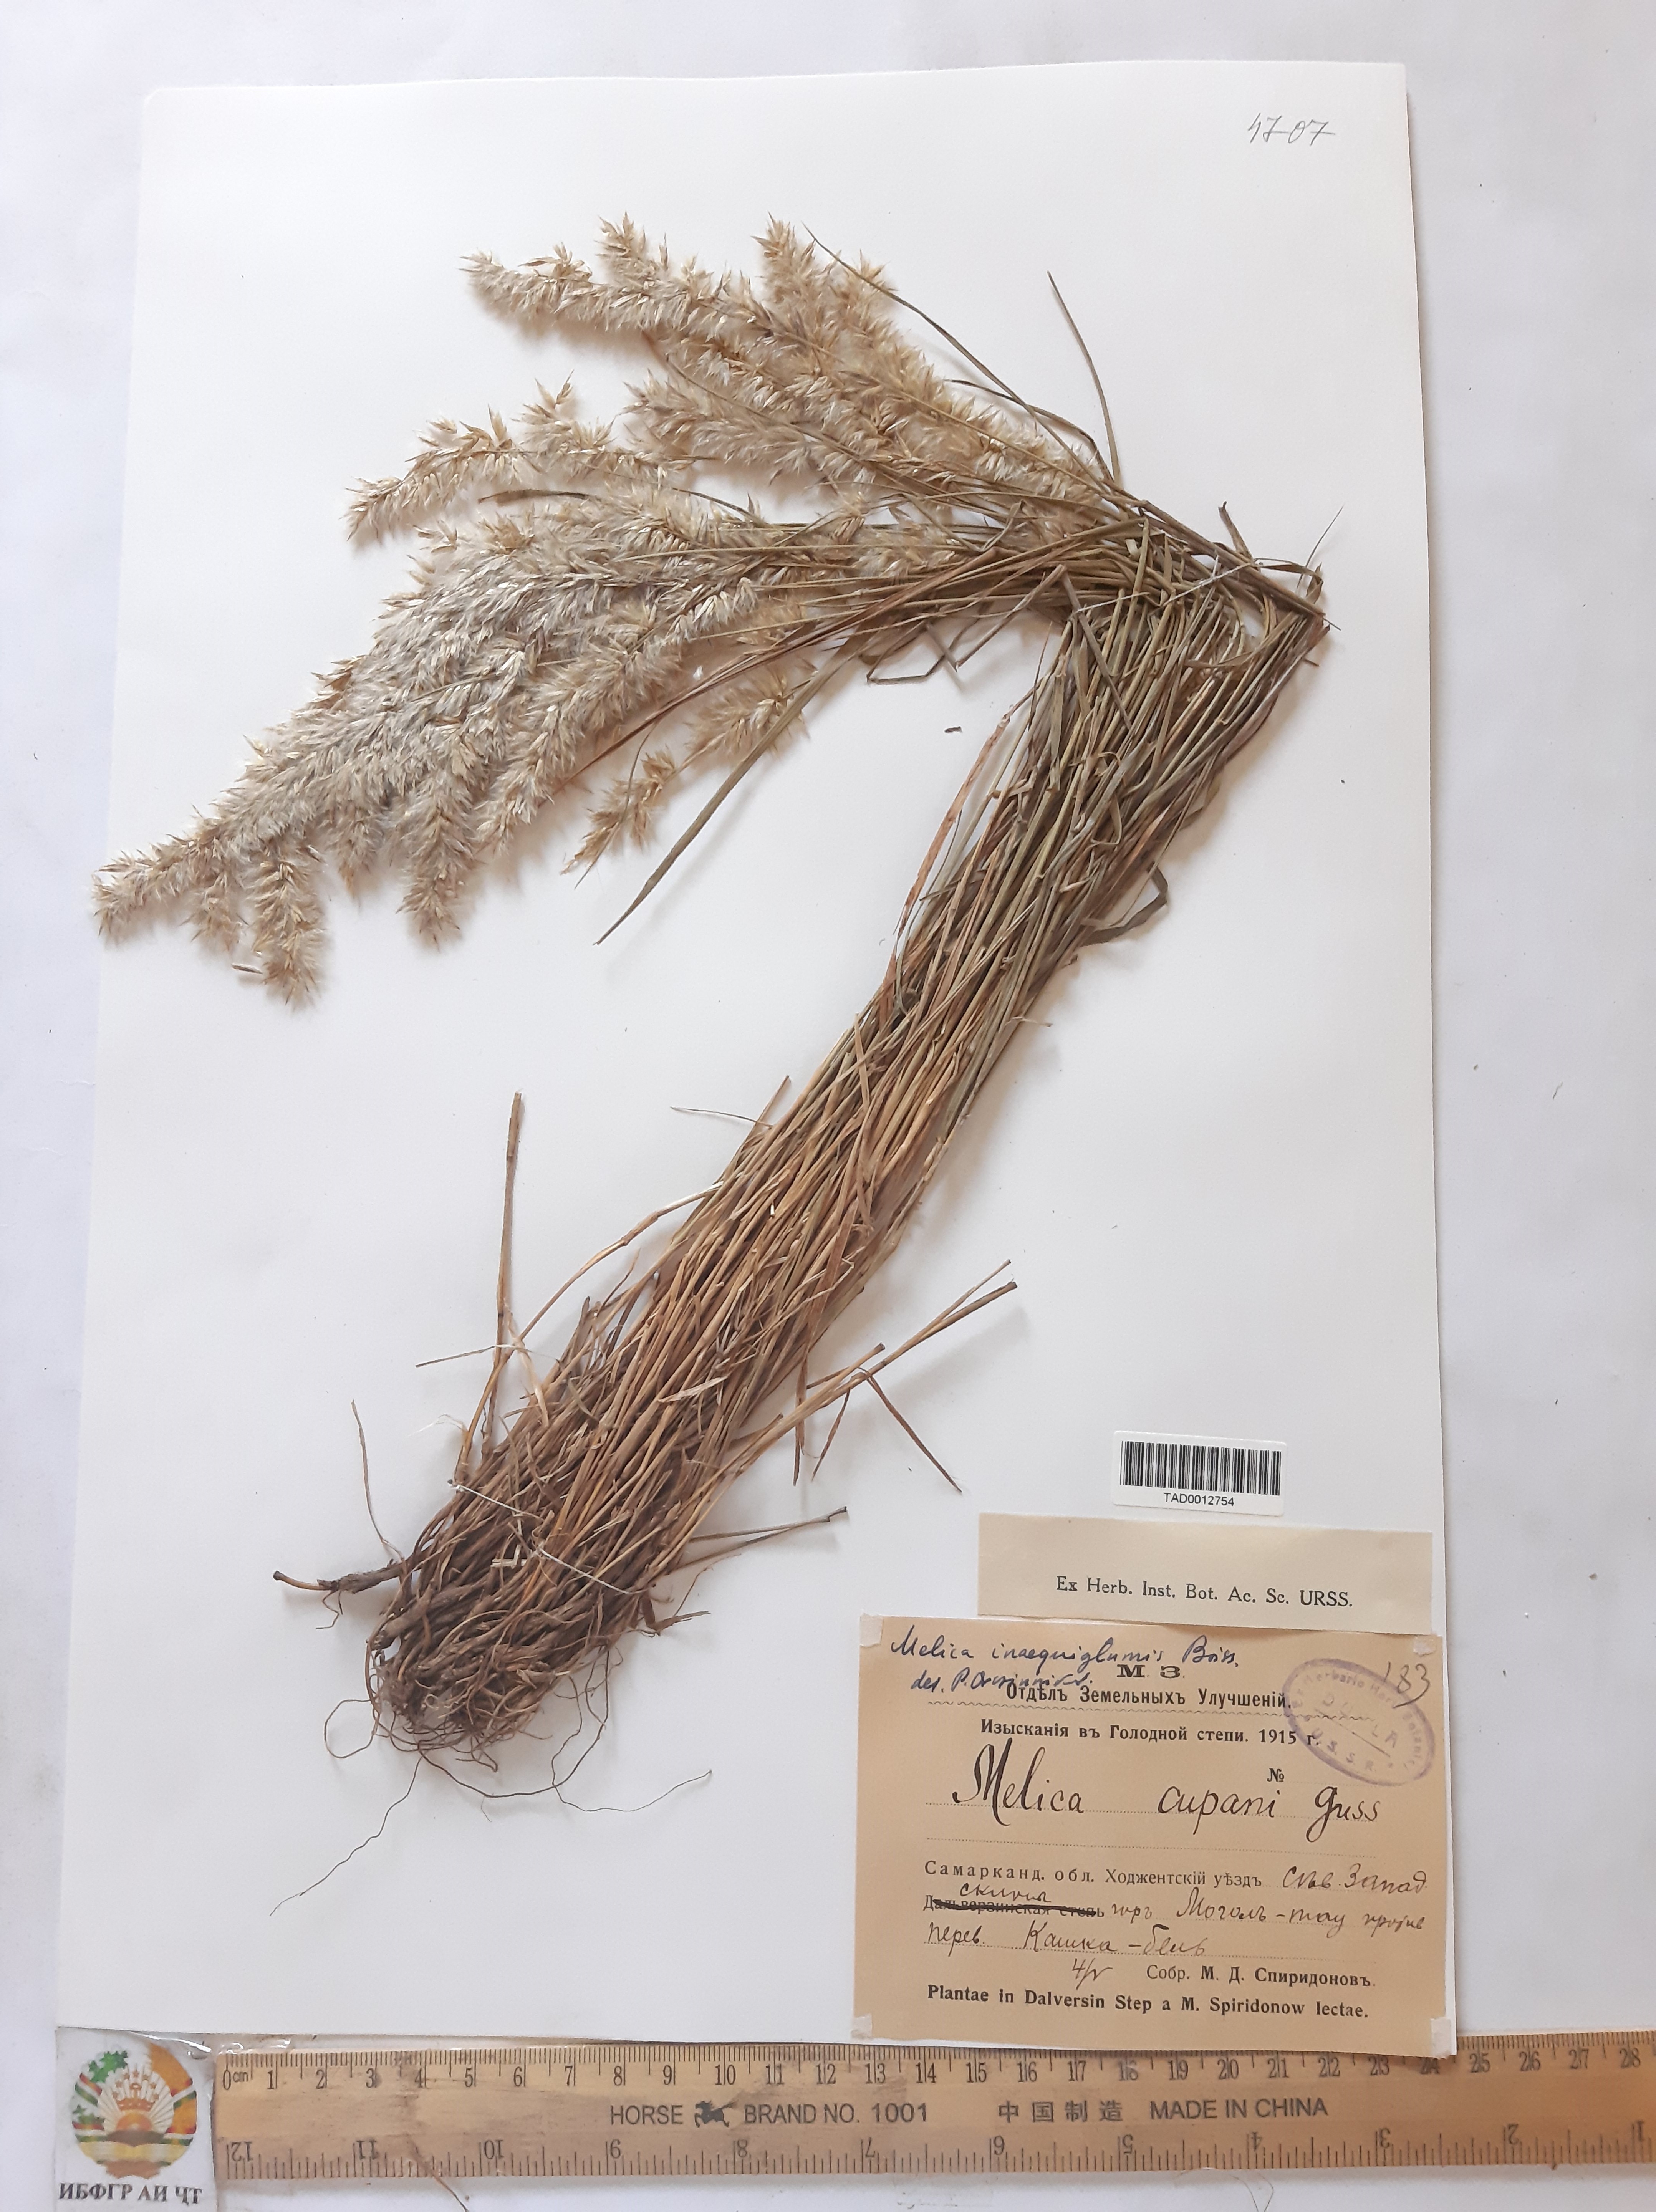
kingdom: Plantae
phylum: Tracheophyta
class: Liliopsida
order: Poales
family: Poaceae
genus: Melica
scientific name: Melica persica
